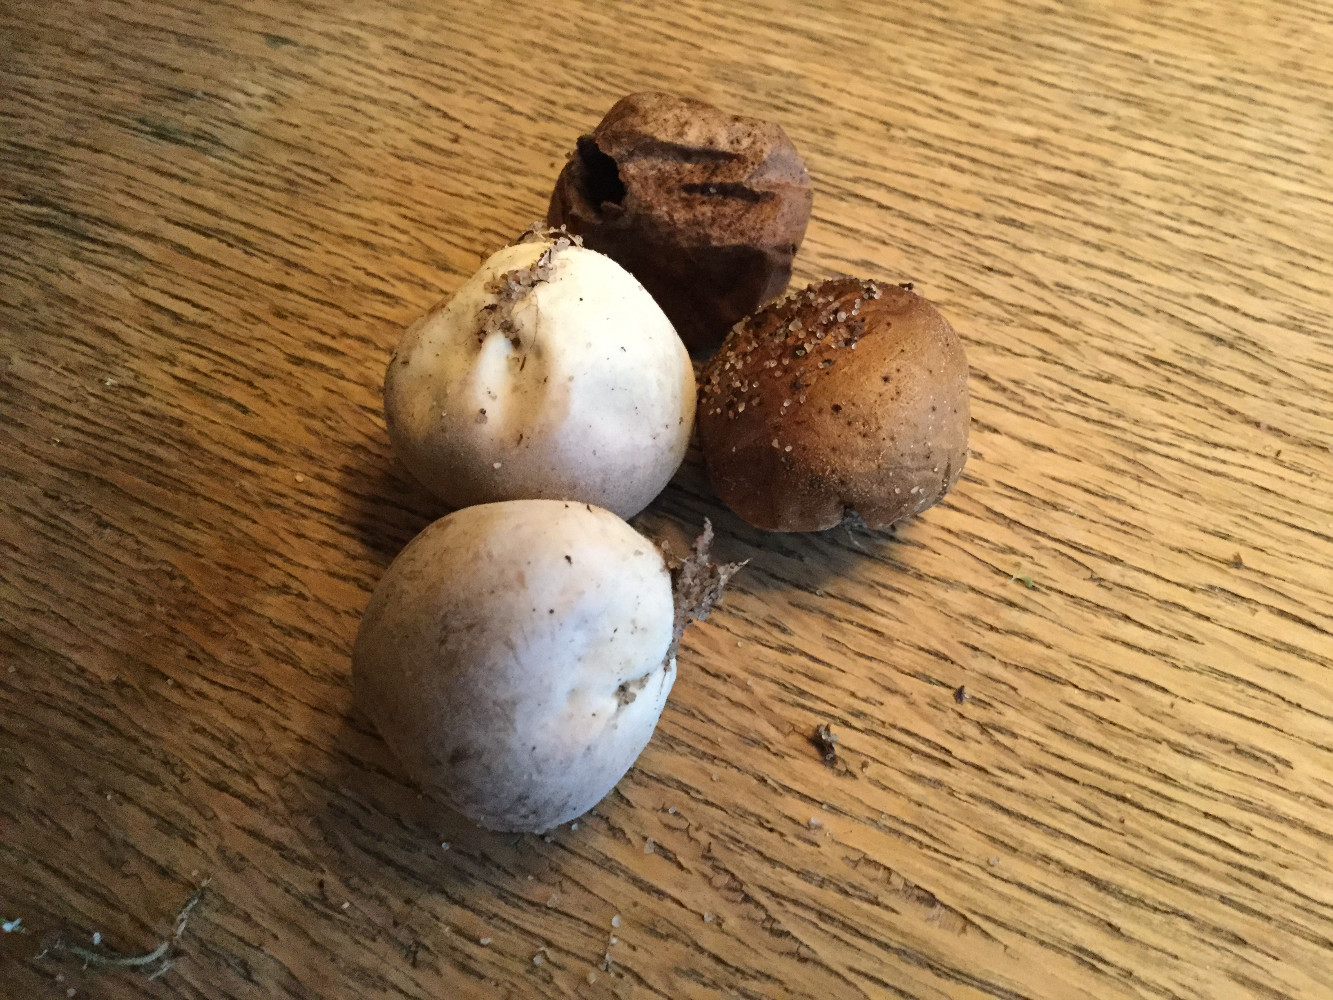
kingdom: Fungi
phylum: Basidiomycota
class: Agaricomycetes
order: Agaricales
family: Lycoperdaceae
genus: Bovista
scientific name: Bovista furfuracea
